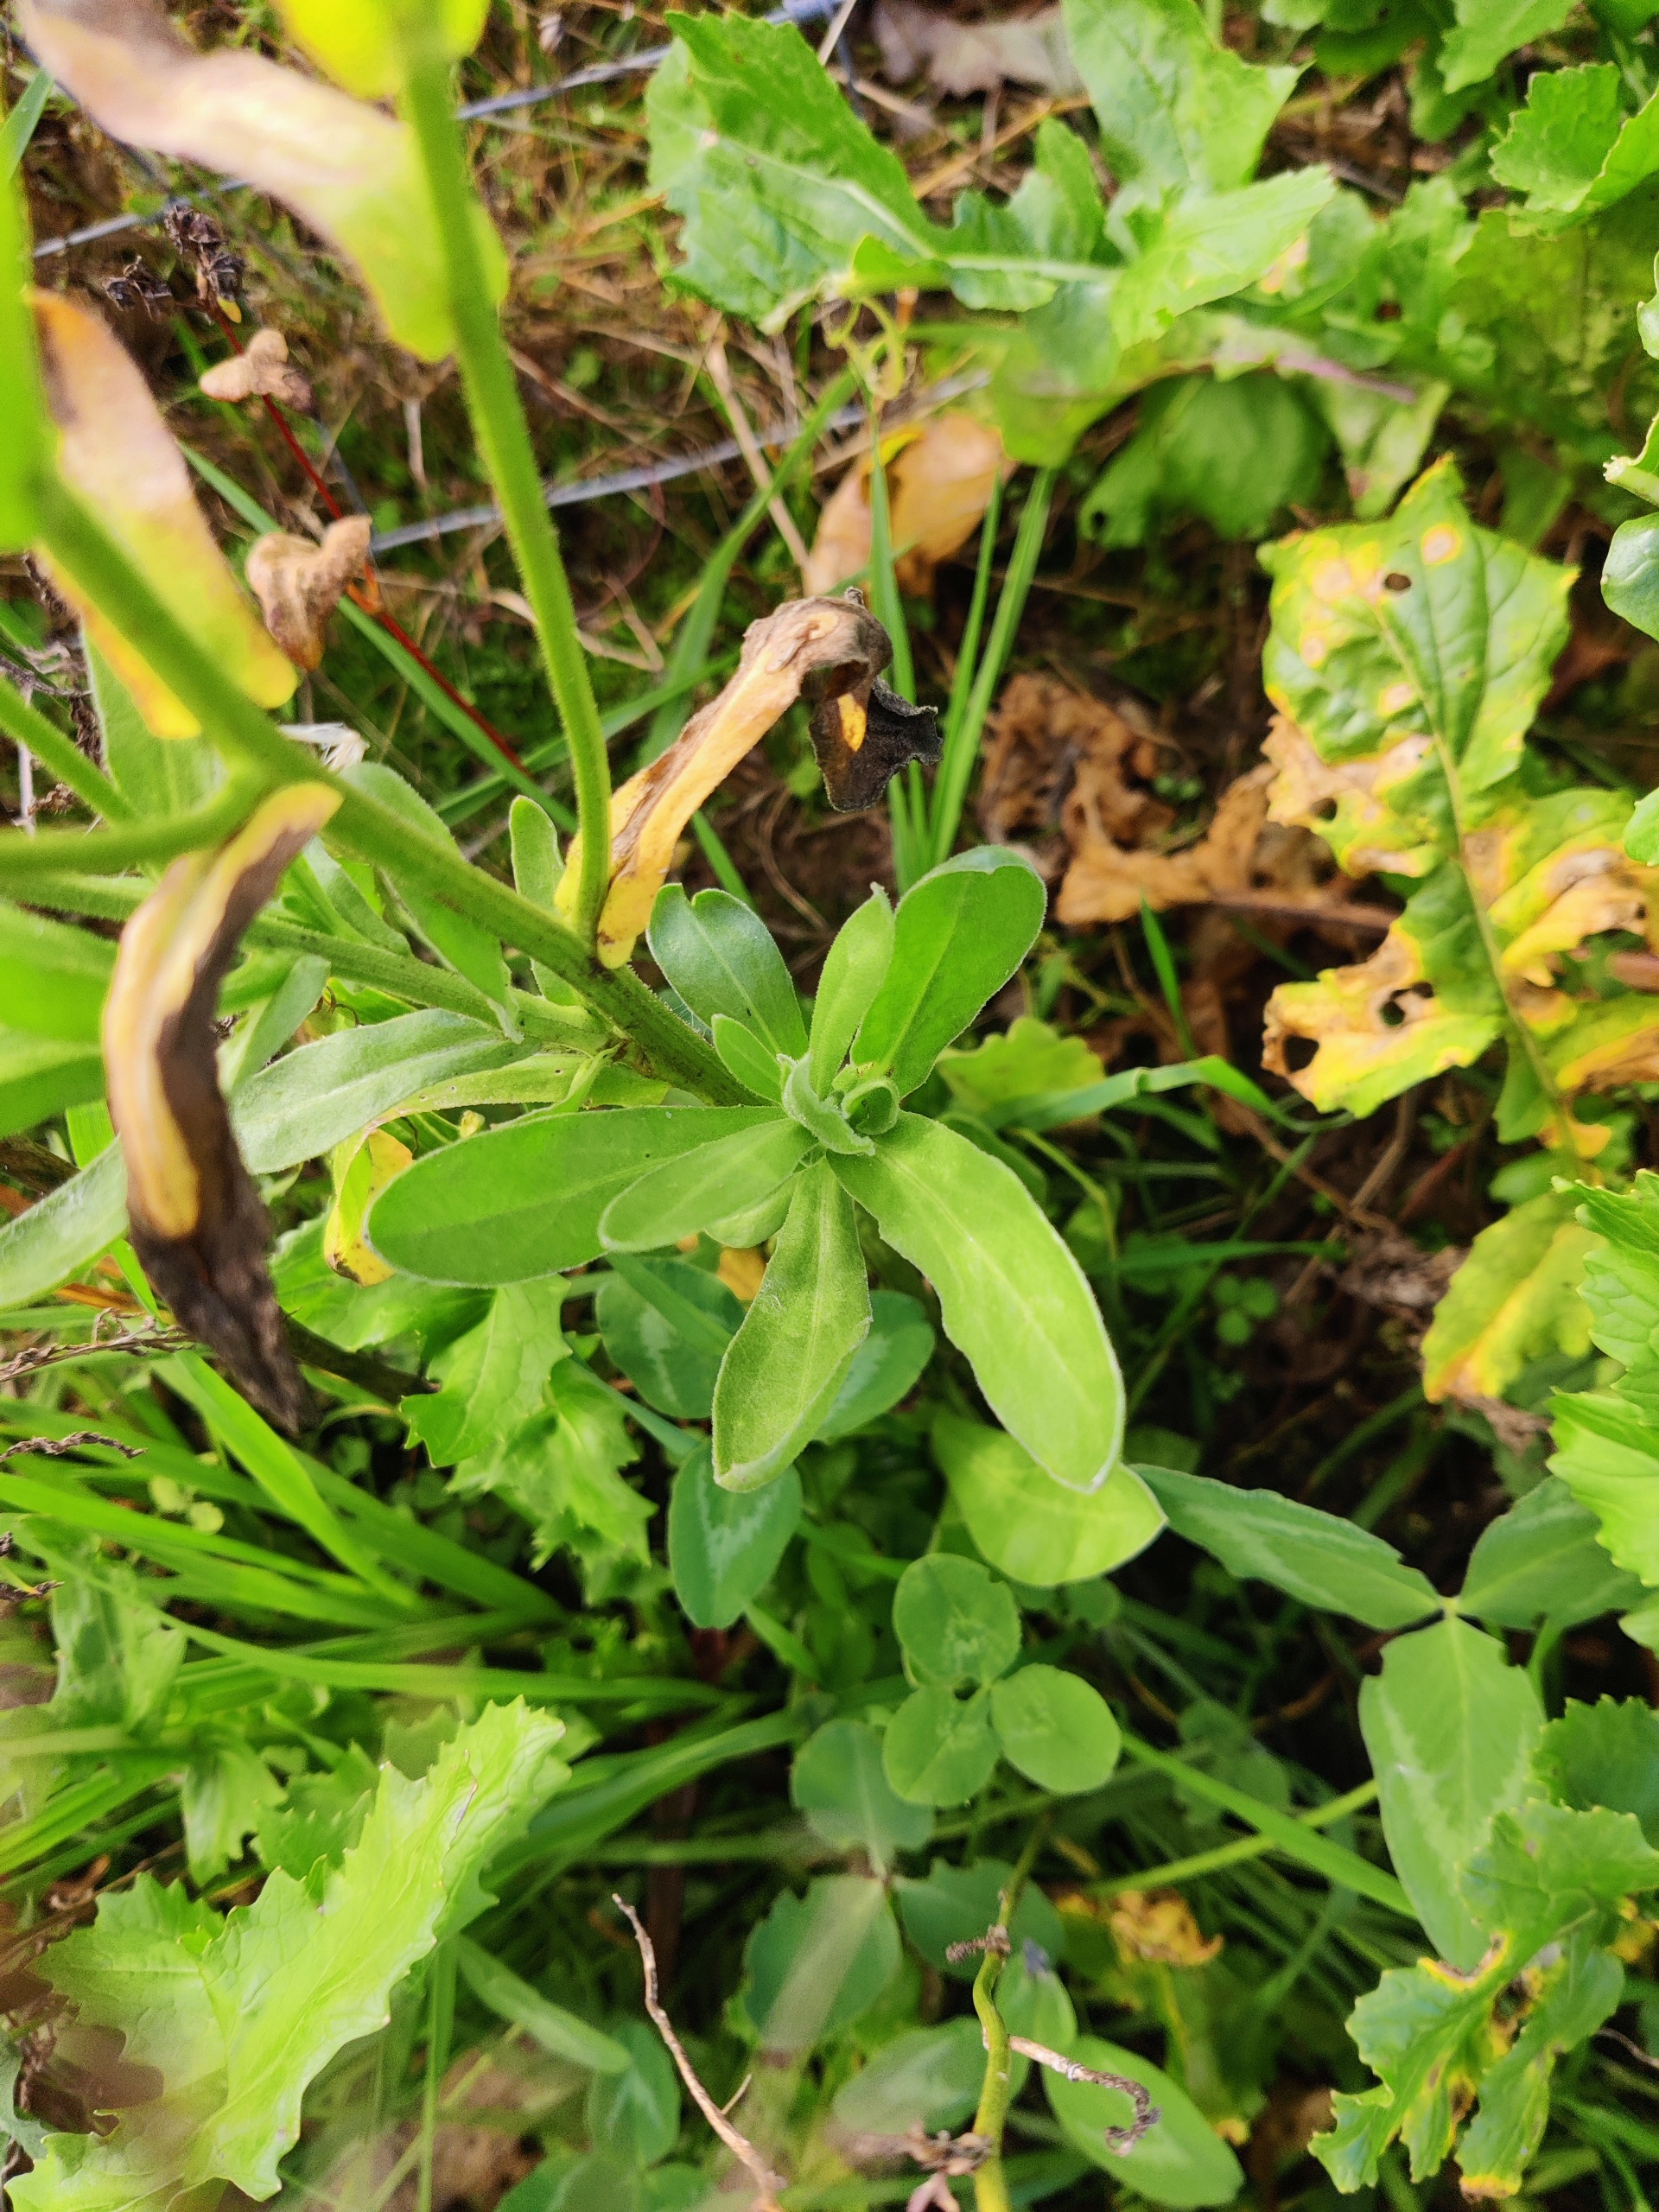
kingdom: Plantae
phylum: Tracheophyta
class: Magnoliopsida
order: Asterales
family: Asteraceae
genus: Calendula
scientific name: Calendula officinalis
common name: Have-morgenfrue
